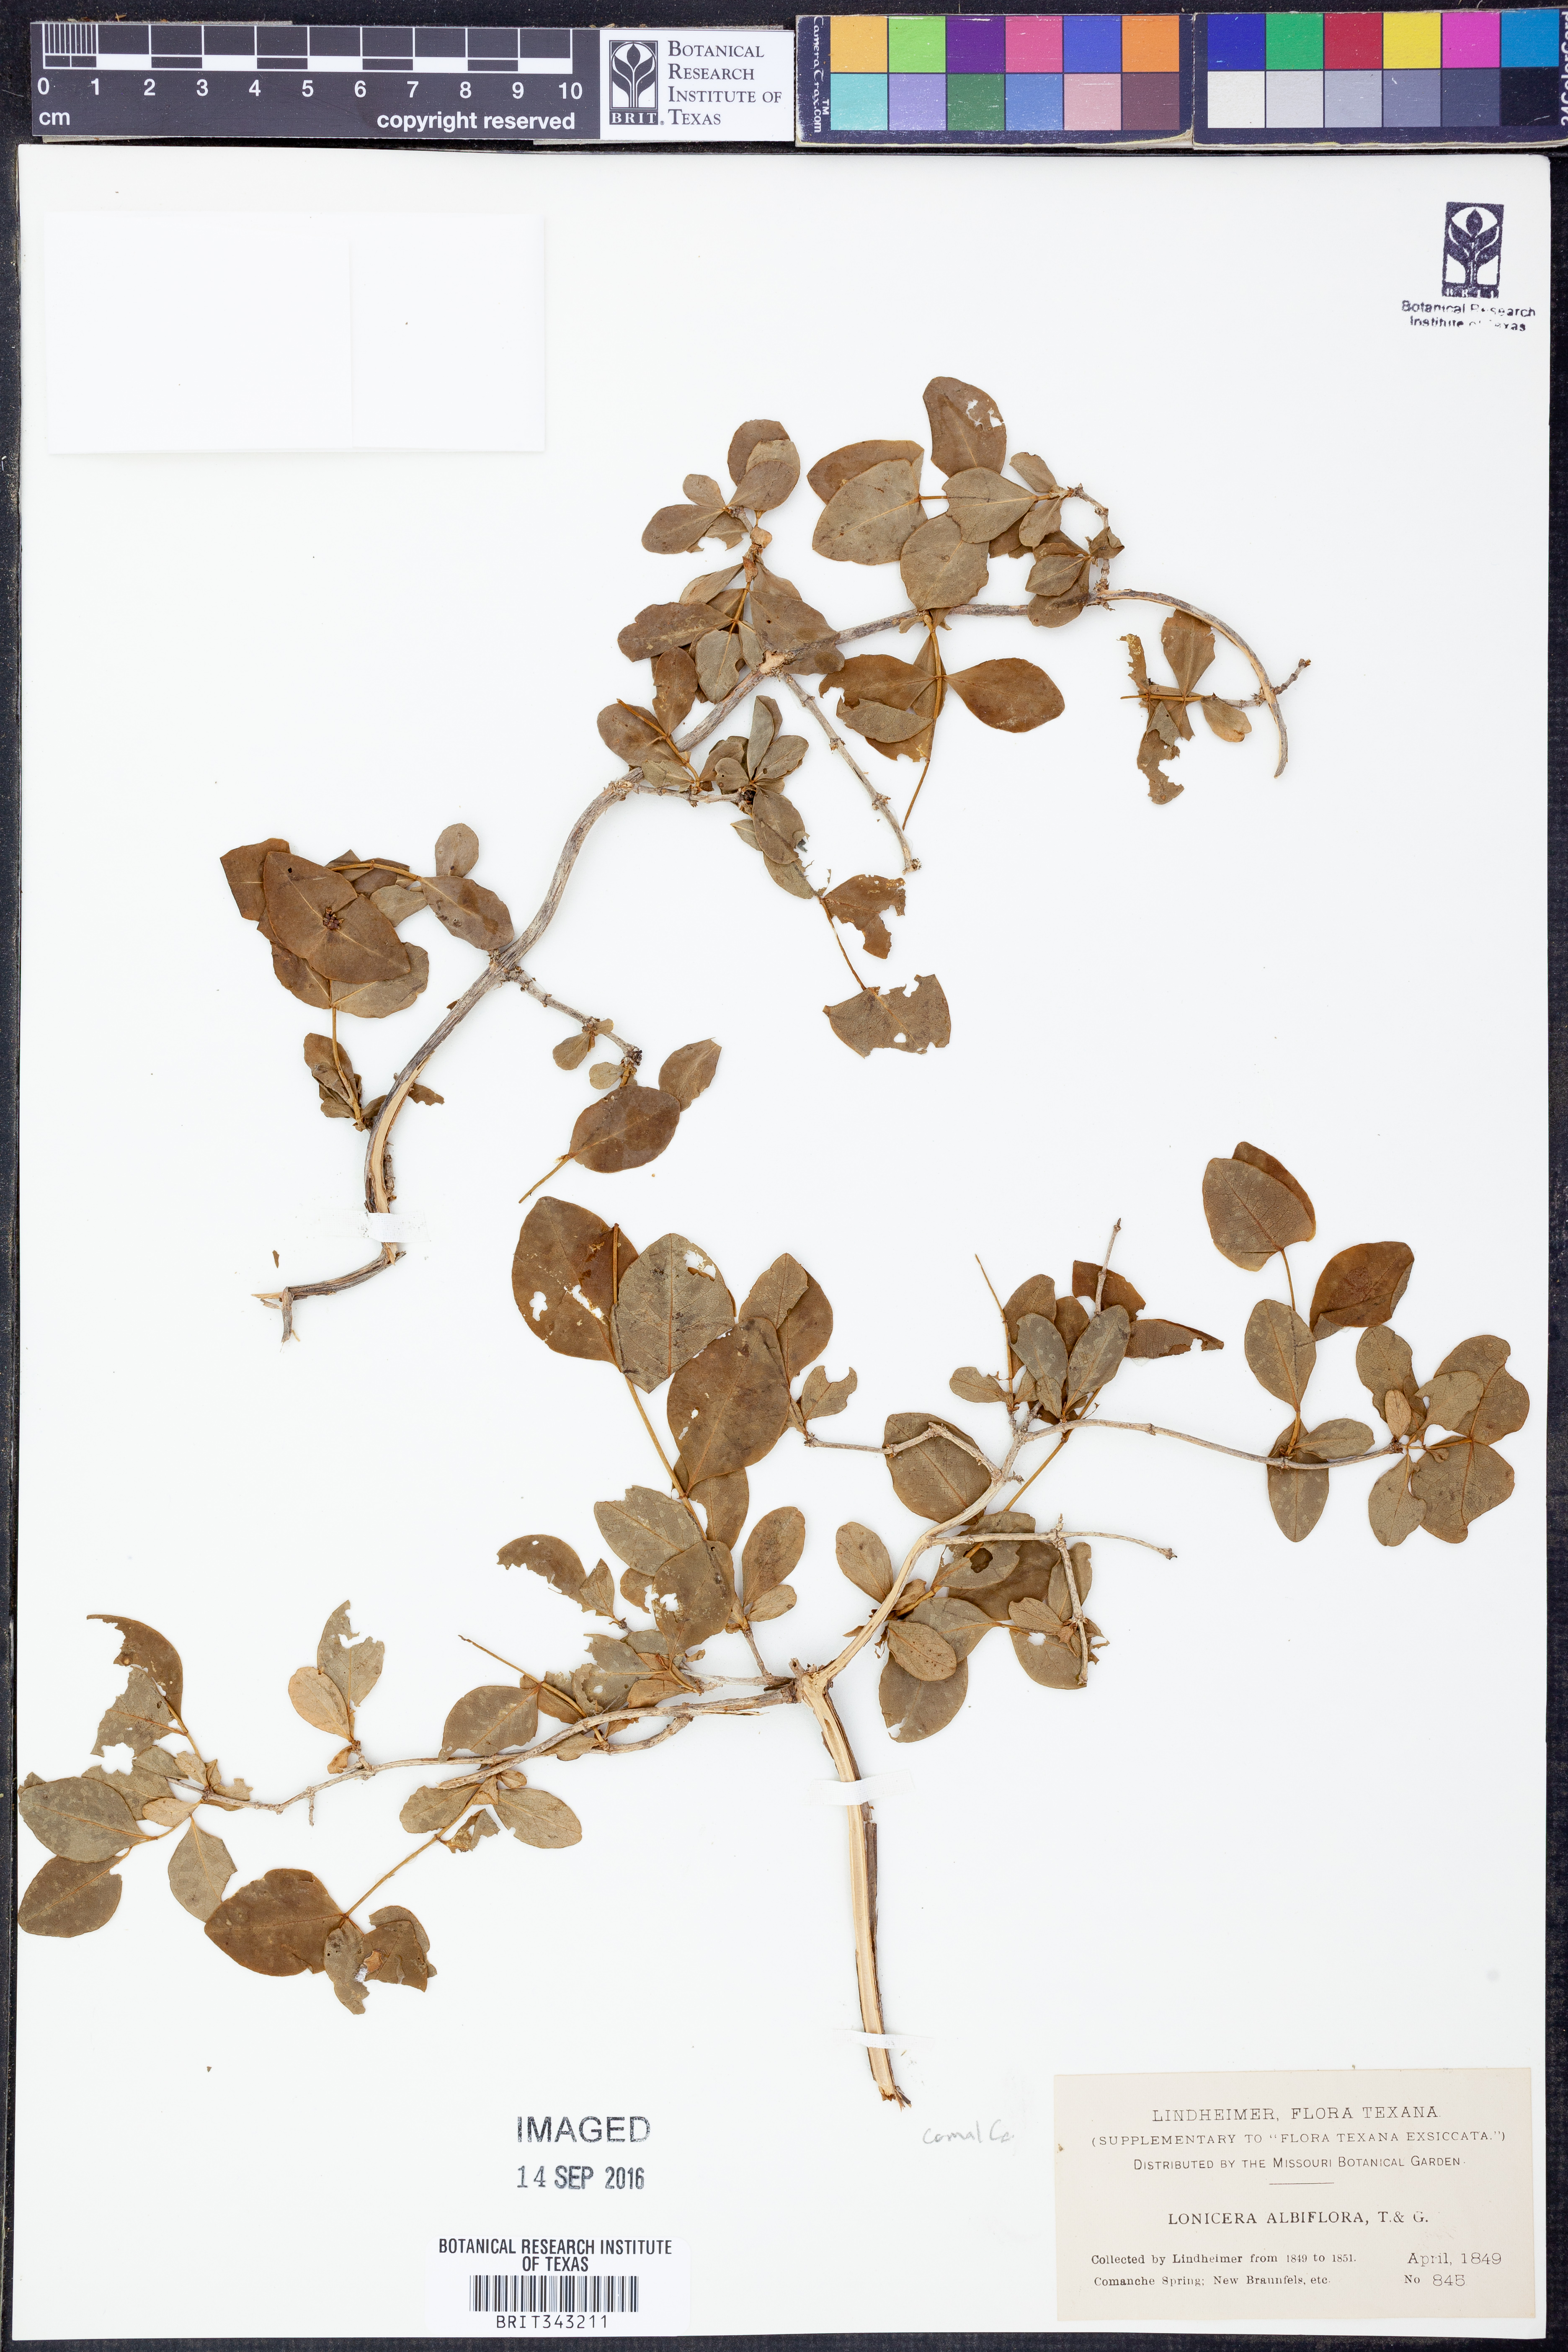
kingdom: Plantae
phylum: Tracheophyta
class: Magnoliopsida
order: Dipsacales
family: Caprifoliaceae
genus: Lonicera
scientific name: Lonicera albiflora
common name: White honeysuckle
